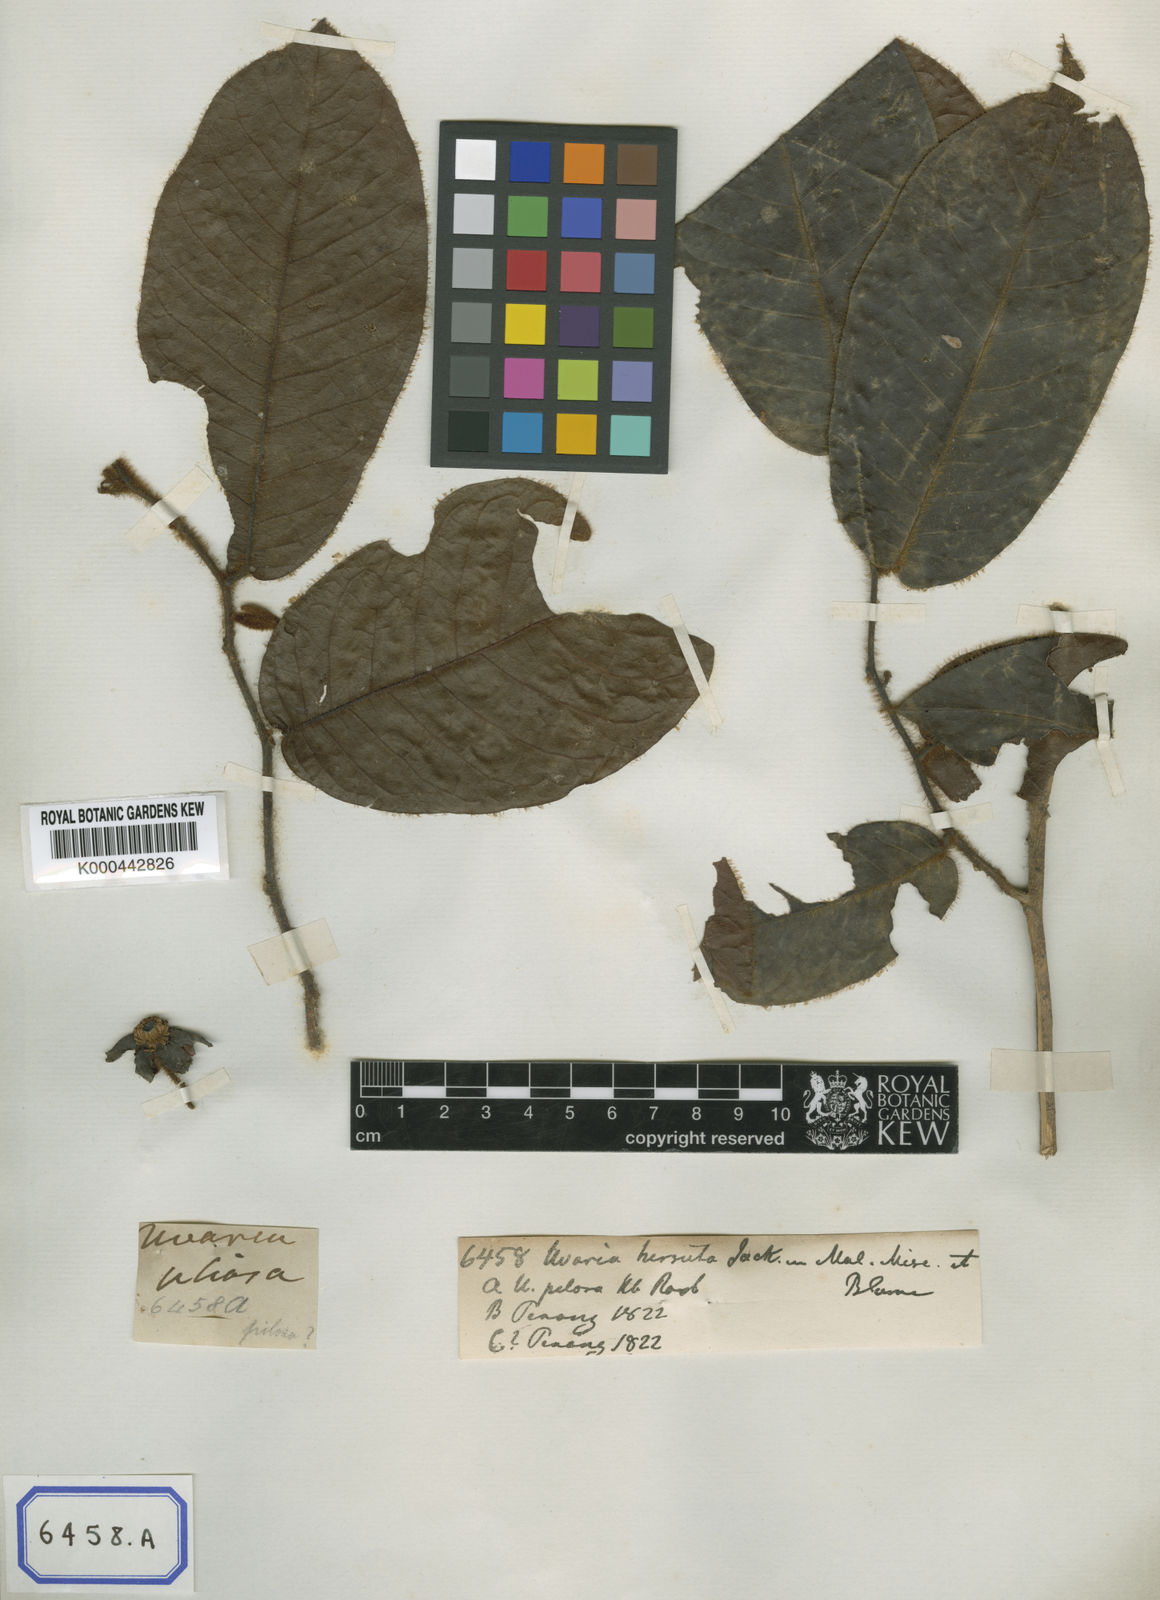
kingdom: Plantae
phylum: Tracheophyta
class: Magnoliopsida
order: Magnoliales
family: Annonaceae
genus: Uvaria
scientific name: Uvaria hirsuta
